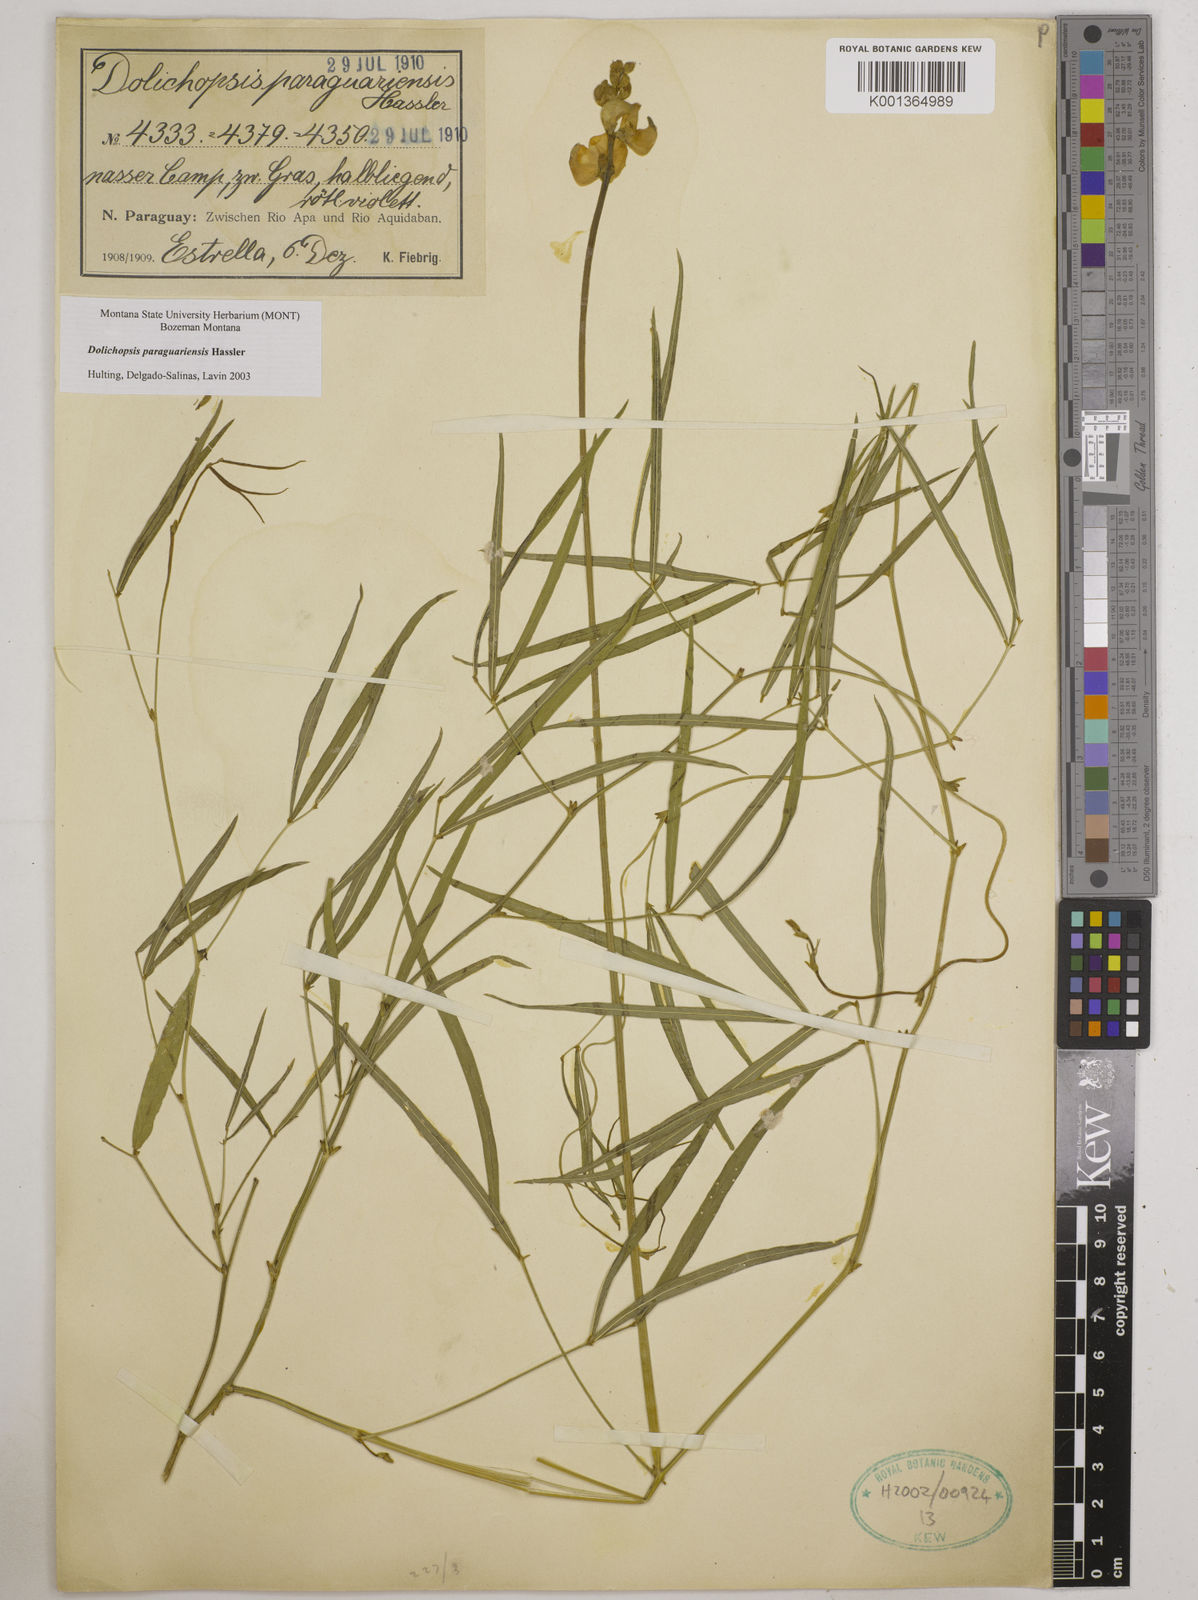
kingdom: Plantae
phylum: Tracheophyta
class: Magnoliopsida
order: Fabales
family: Fabaceae
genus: Dolichopsis
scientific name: Dolichopsis paraguariensis
